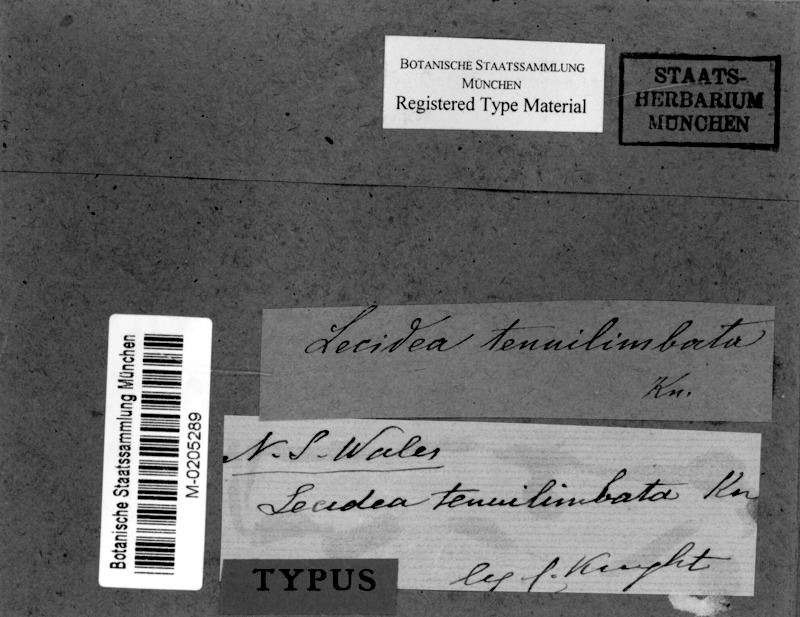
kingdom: Fungi
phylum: Ascomycota
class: Lecanoromycetes
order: Lecanorales
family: Catillariaceae
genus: Catillaria
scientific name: Catillaria tenuilimbata
